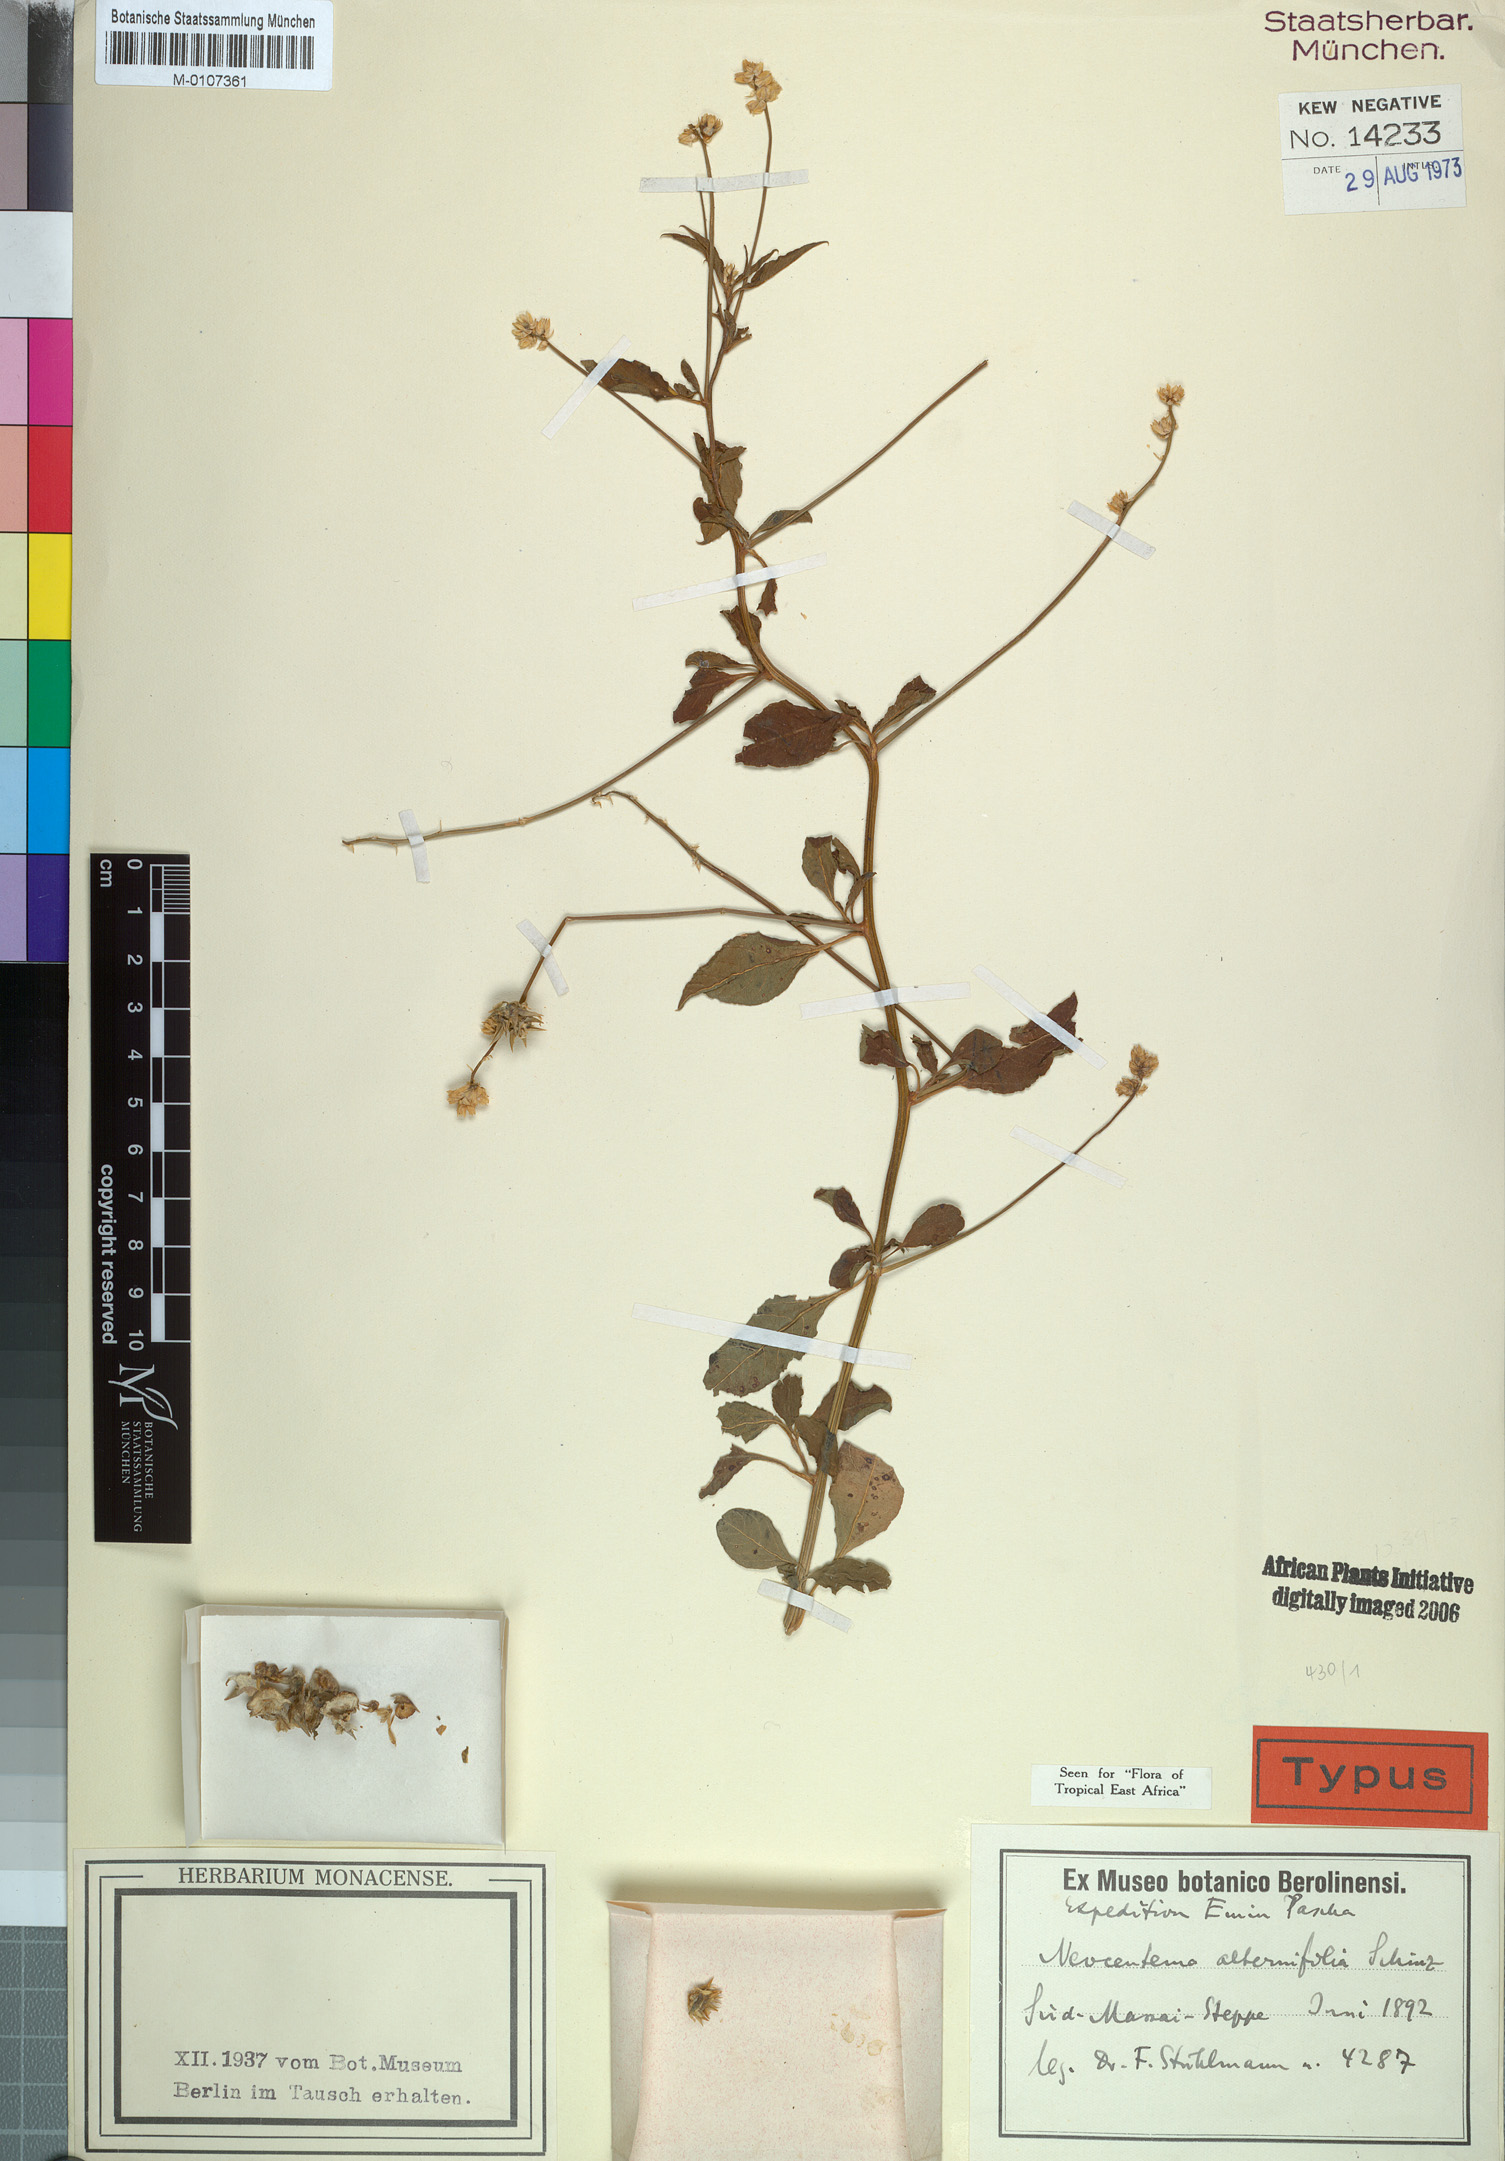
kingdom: Plantae
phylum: Tracheophyta
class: Magnoliopsida
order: Caryophyllales
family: Amaranthaceae
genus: Neocentema
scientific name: Neocentema alternifolia
